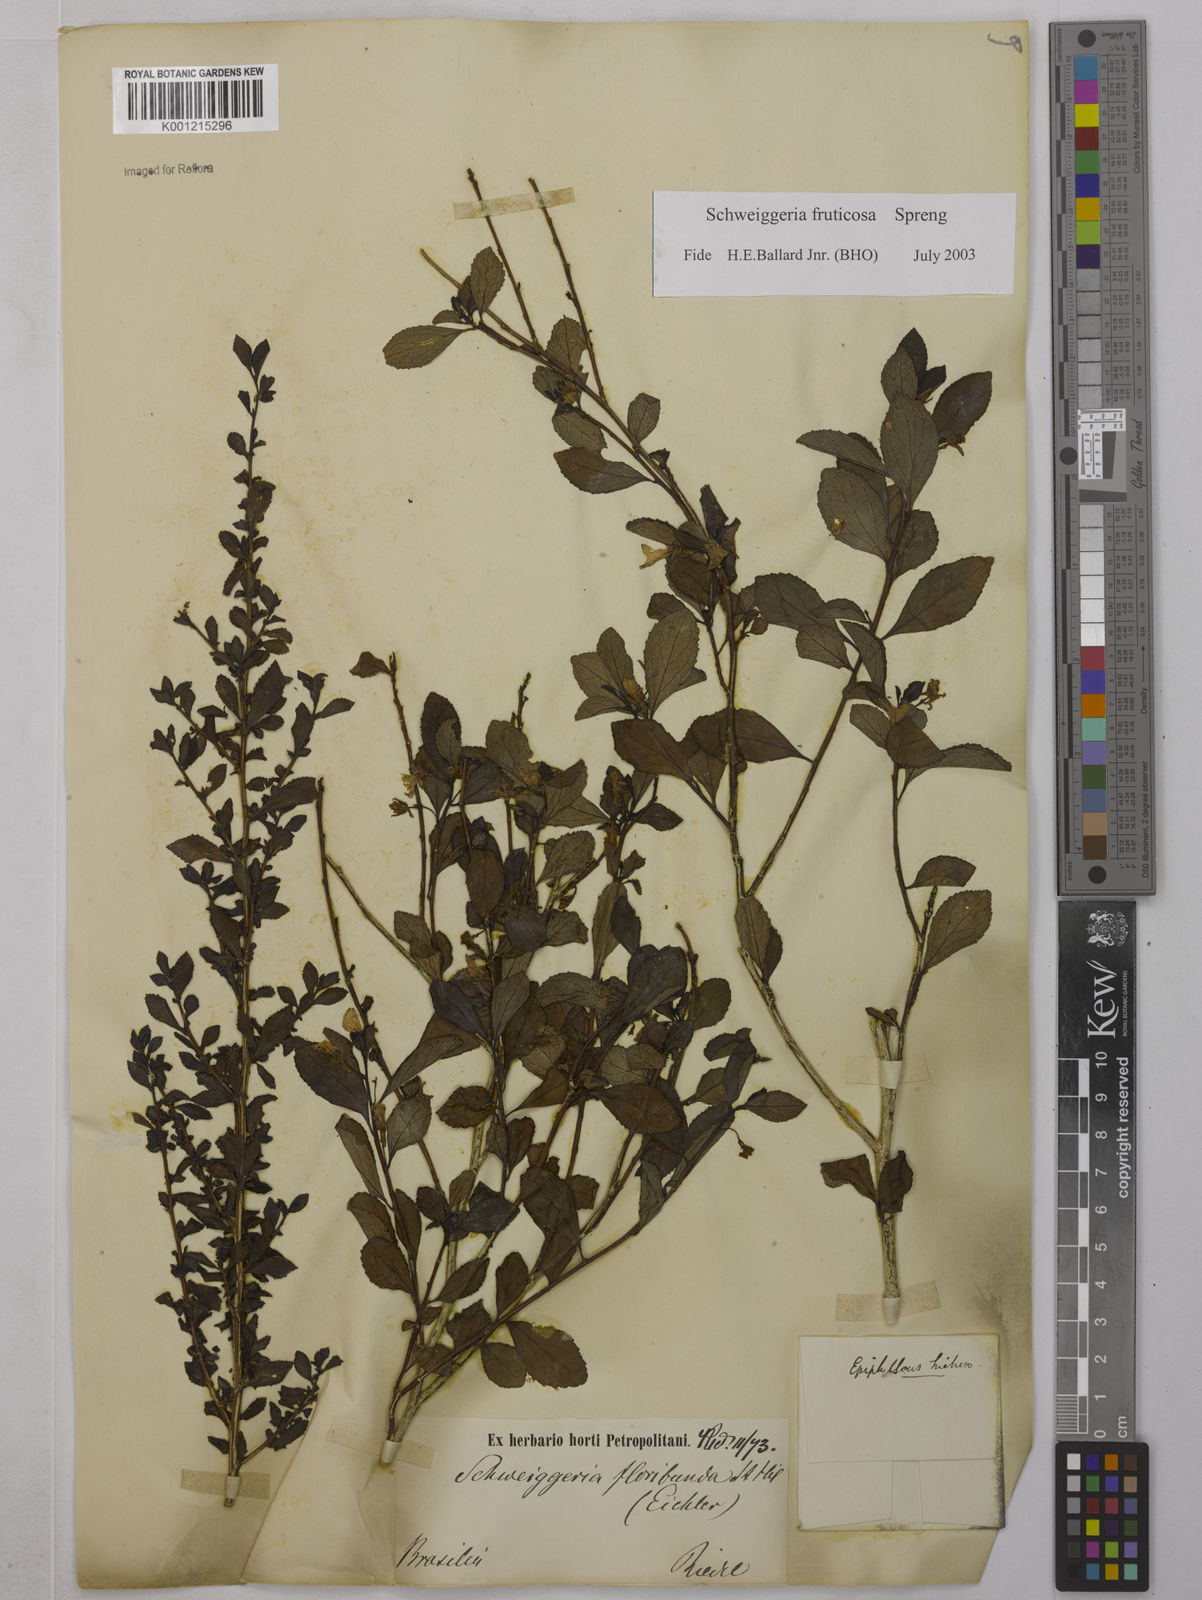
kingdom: Plantae
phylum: Tracheophyta
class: Magnoliopsida
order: Malpighiales
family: Violaceae
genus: Schweiggeria
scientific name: Schweiggeria fruticosa
